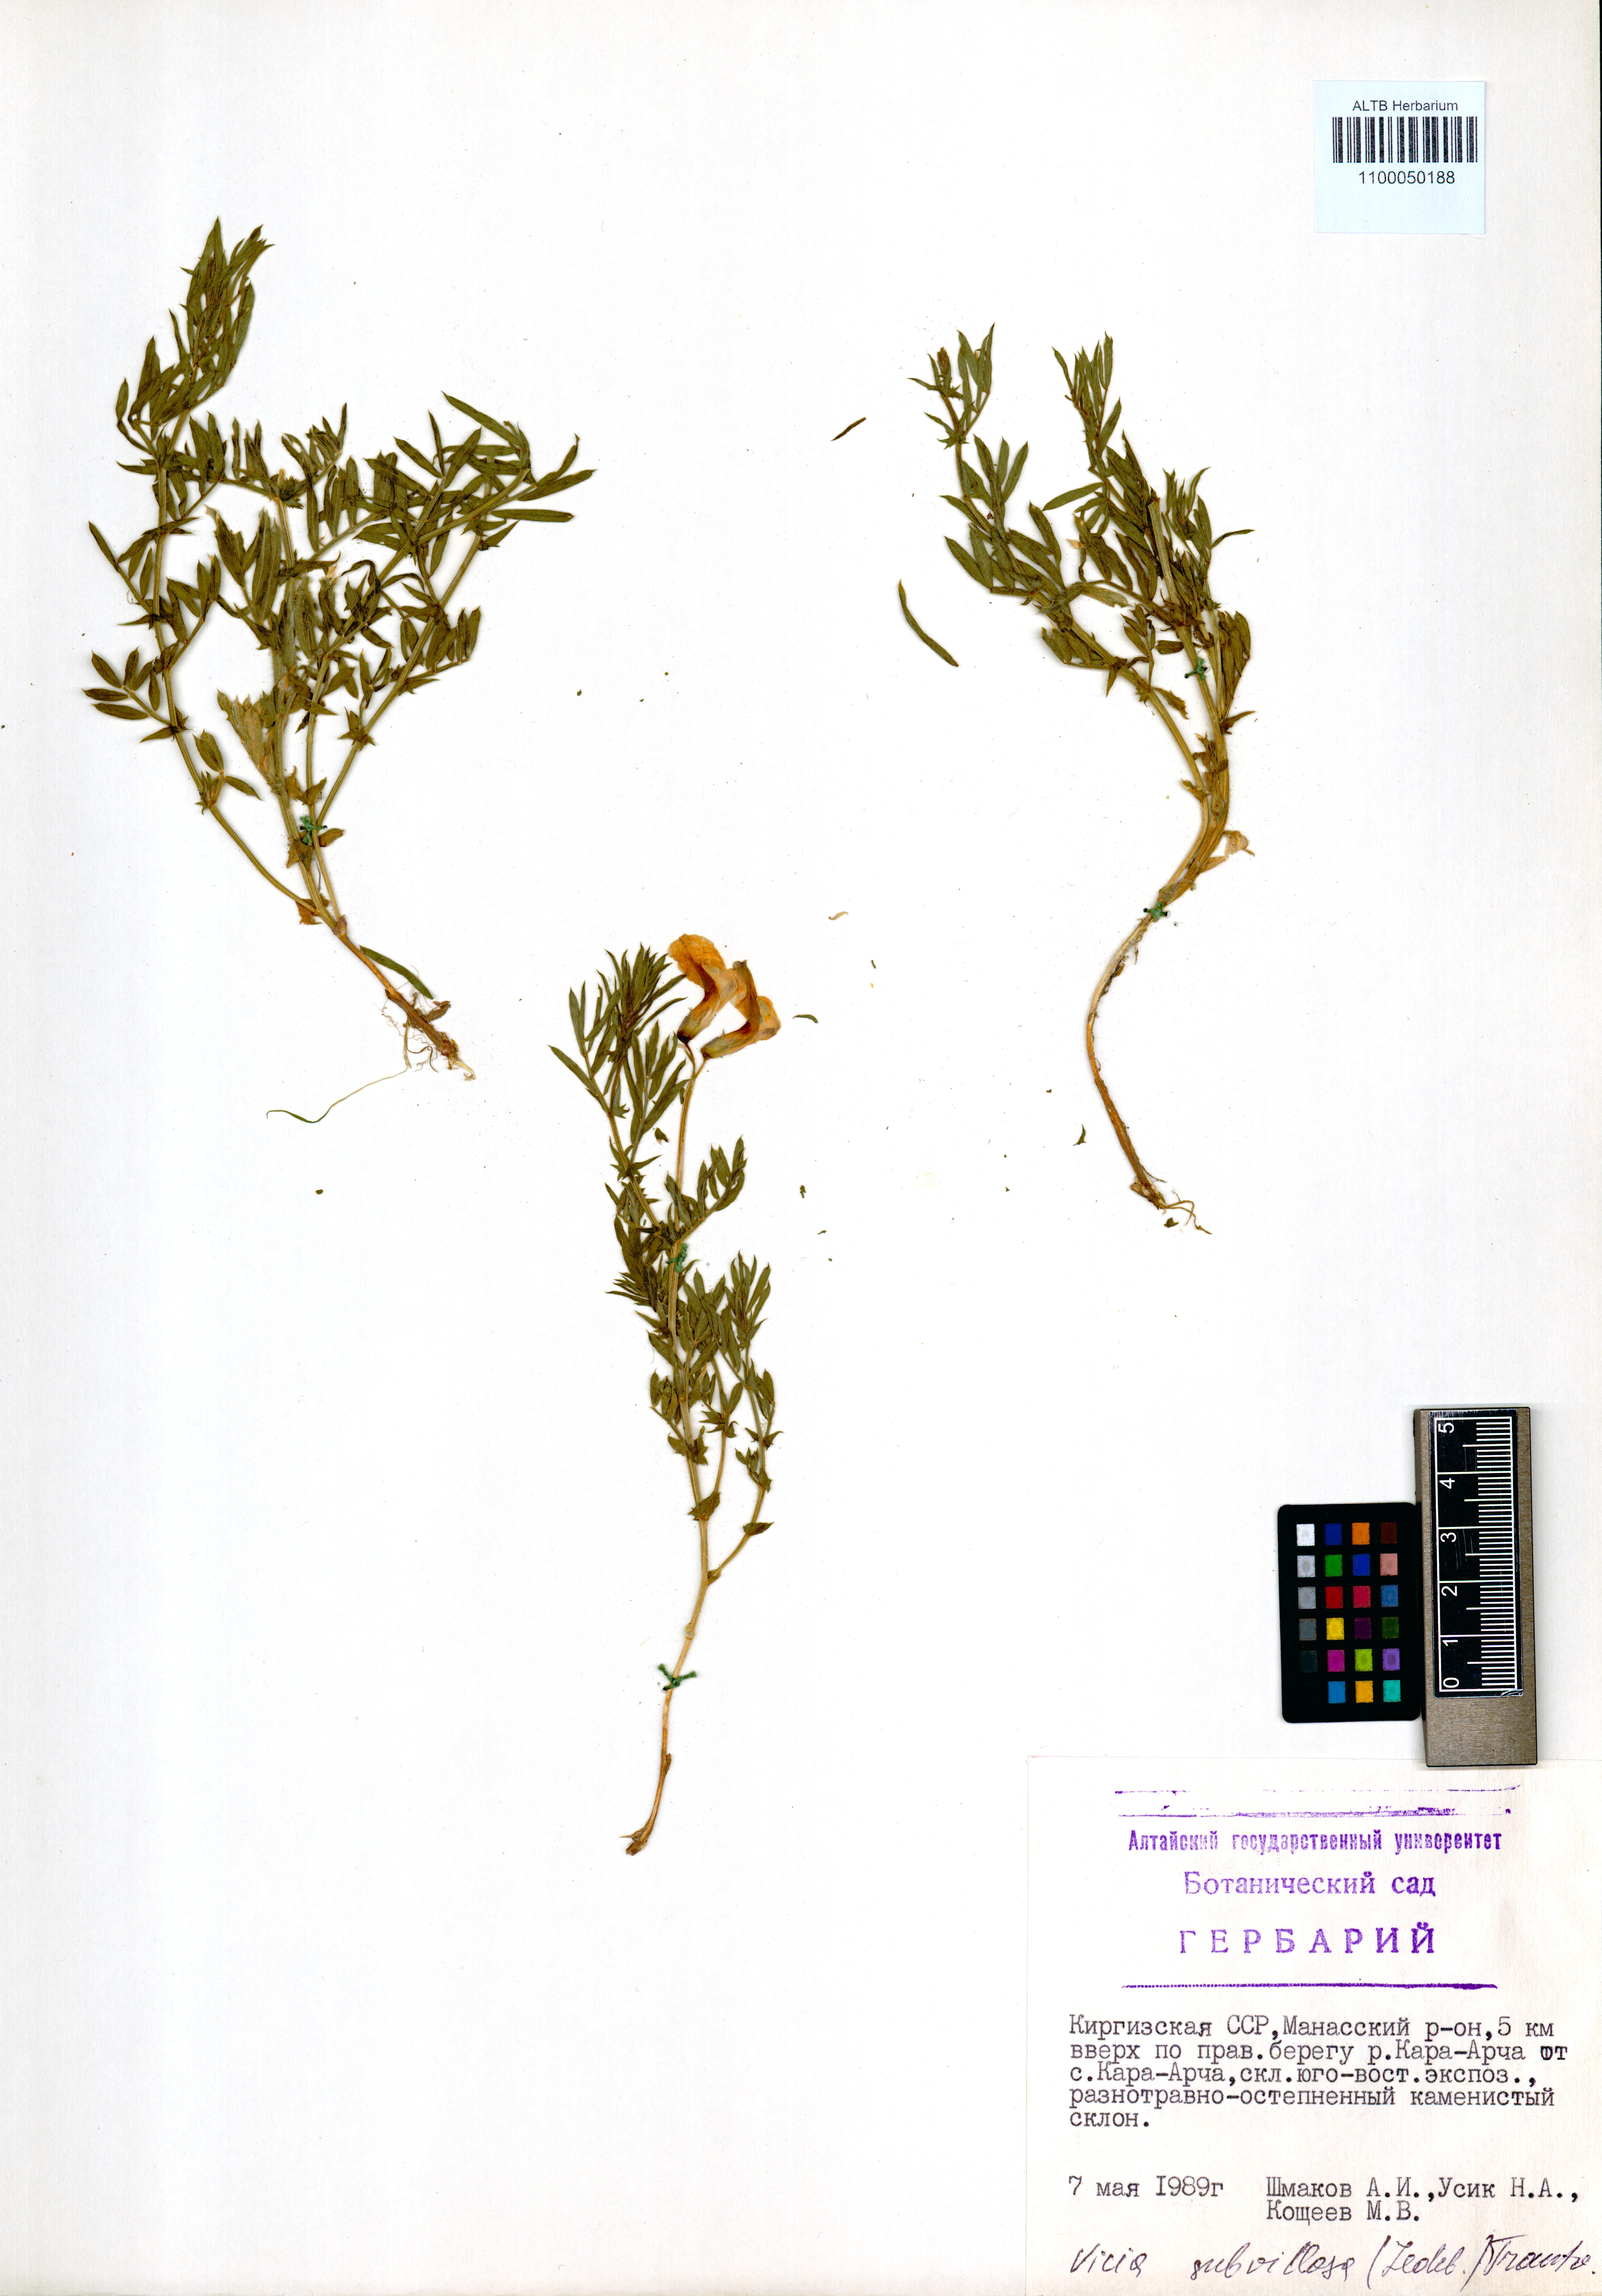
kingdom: Plantae
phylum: Tracheophyta
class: Magnoliopsida
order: Fabales
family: Fabaceae
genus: Vicia
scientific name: Vicia subvillosa
